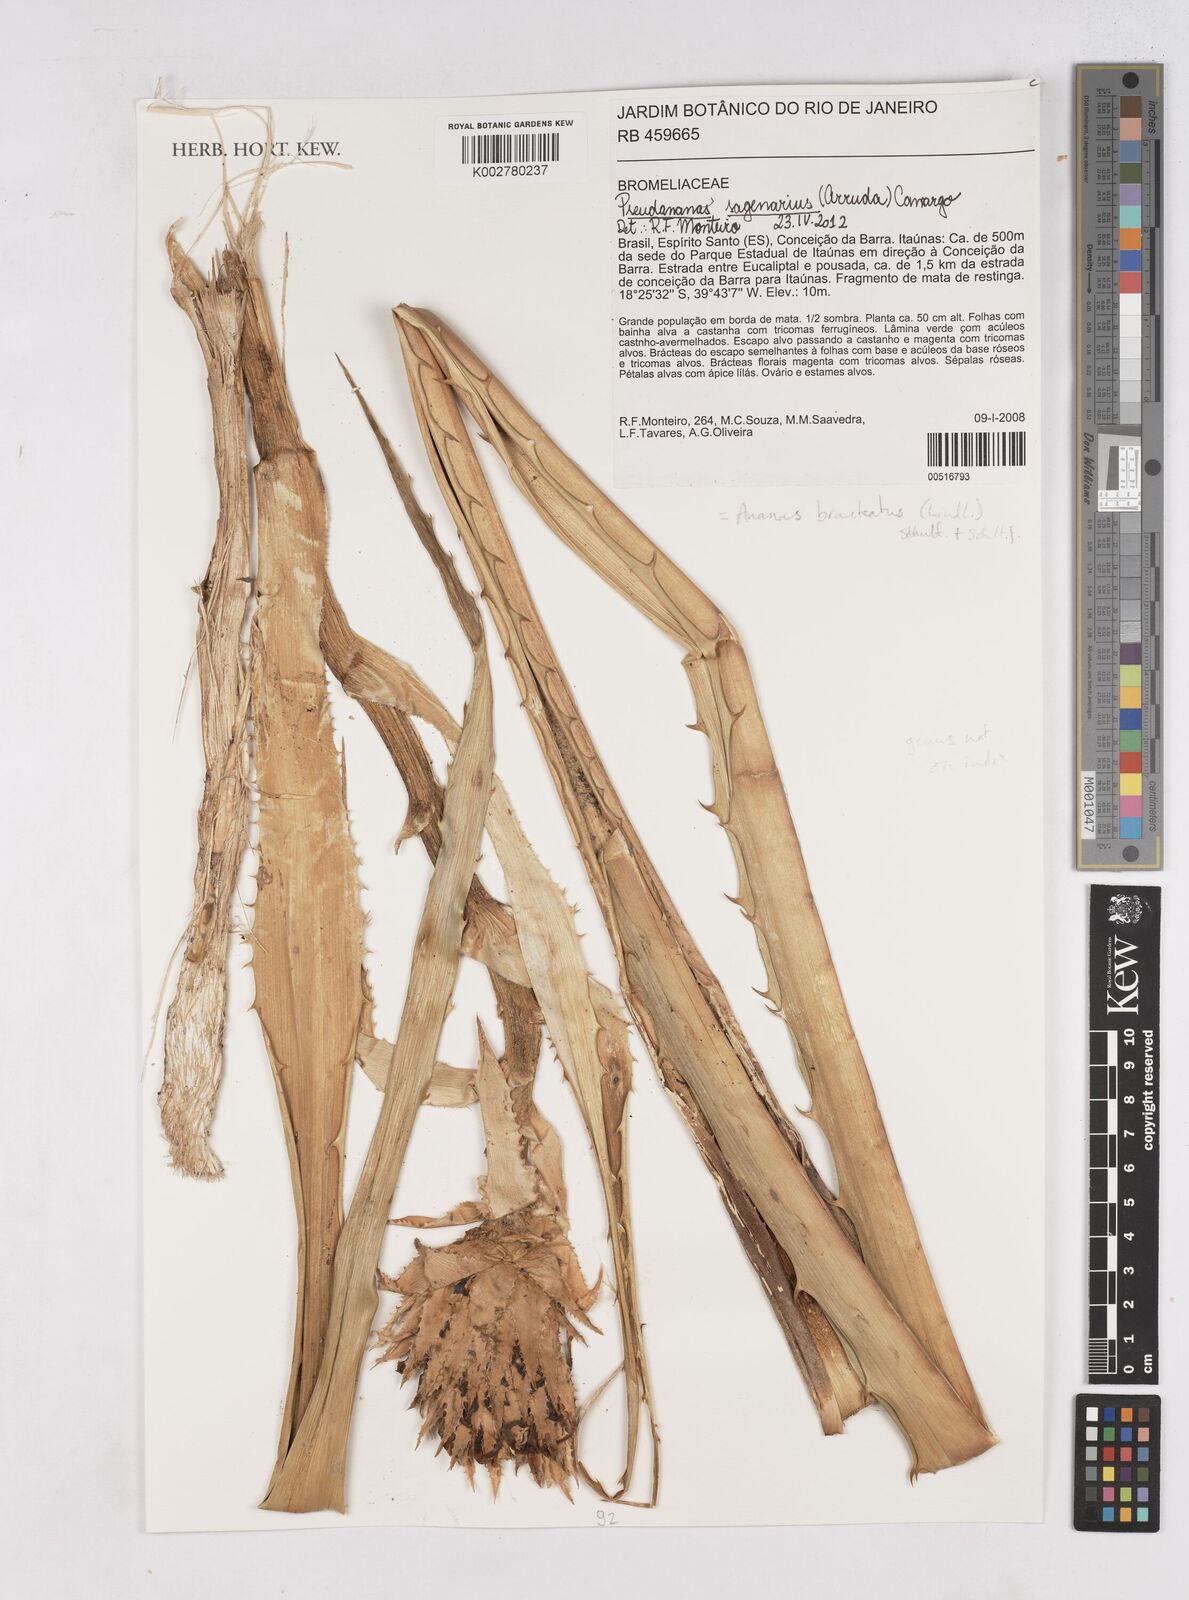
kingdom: Plantae
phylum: Tracheophyta
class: Liliopsida
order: Poales
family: Bromeliaceae
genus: Ananas
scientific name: Ananas comosus
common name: Pineapple
